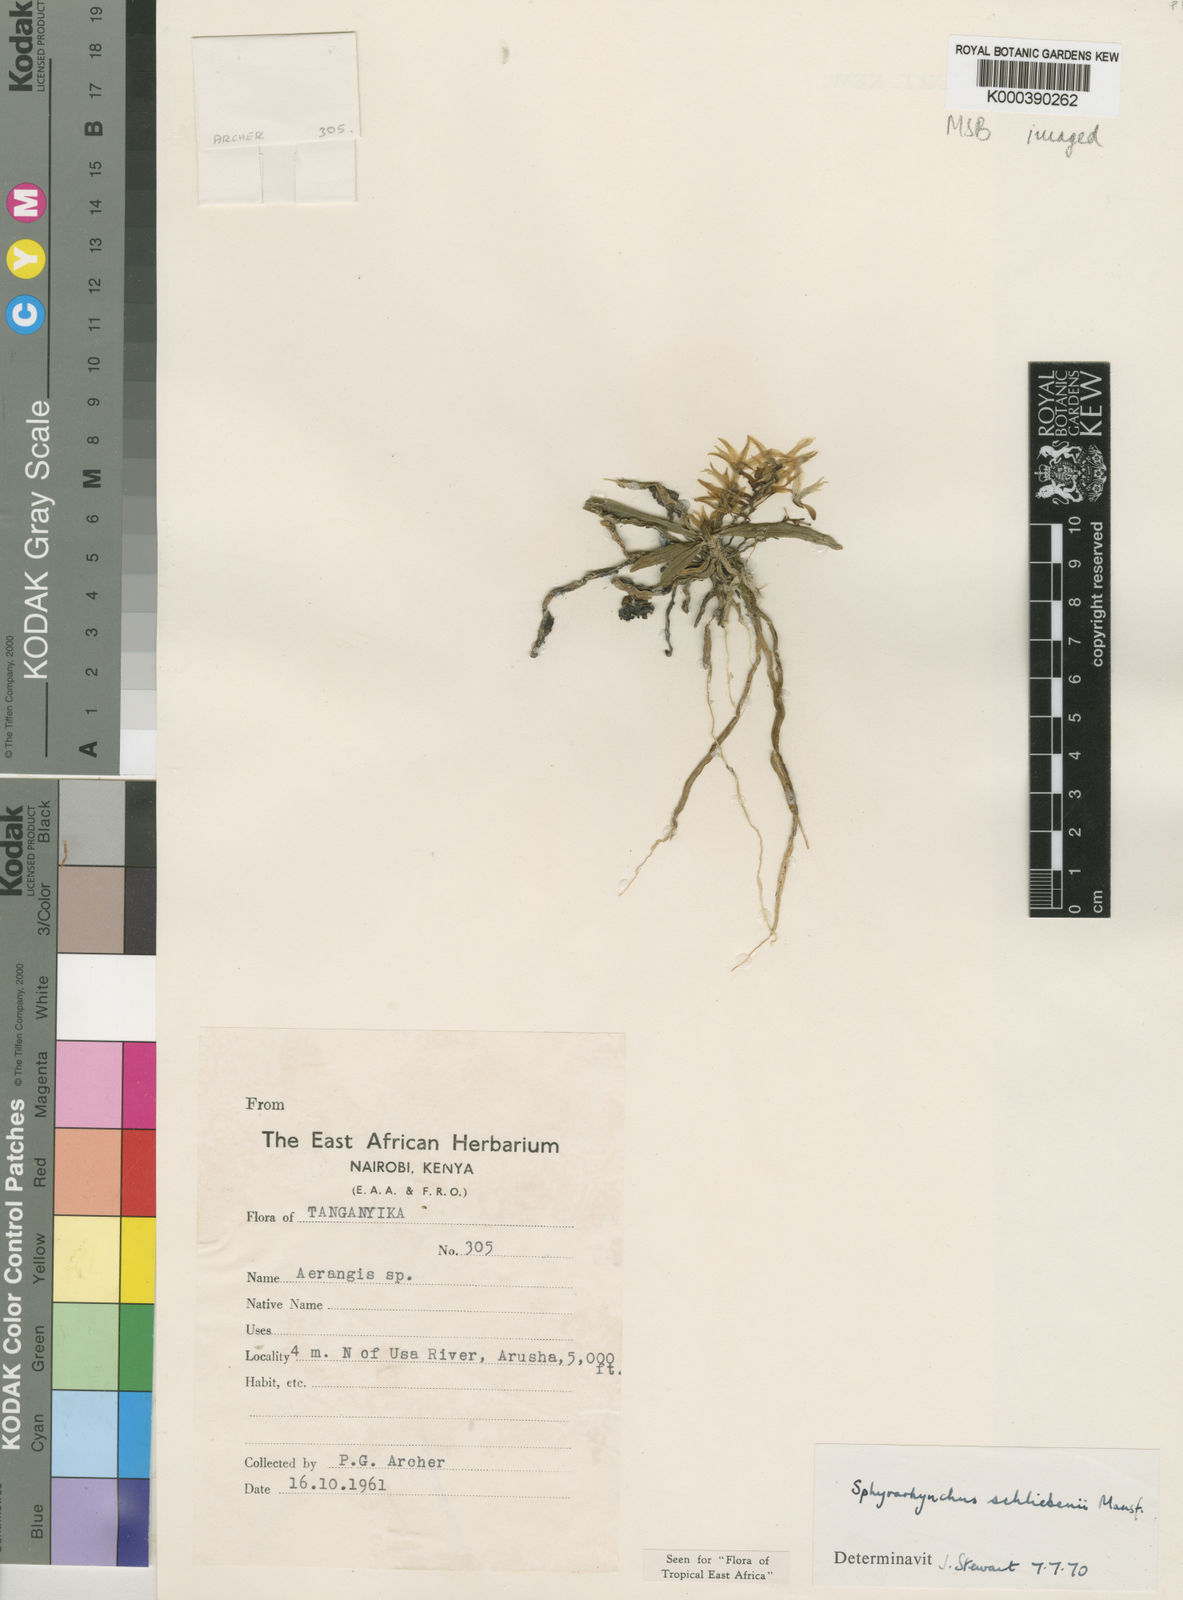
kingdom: Plantae
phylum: Tracheophyta
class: Liliopsida
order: Asparagales
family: Orchidaceae
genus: Sphyrarhynchus
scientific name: Sphyrarhynchus schliebenii
